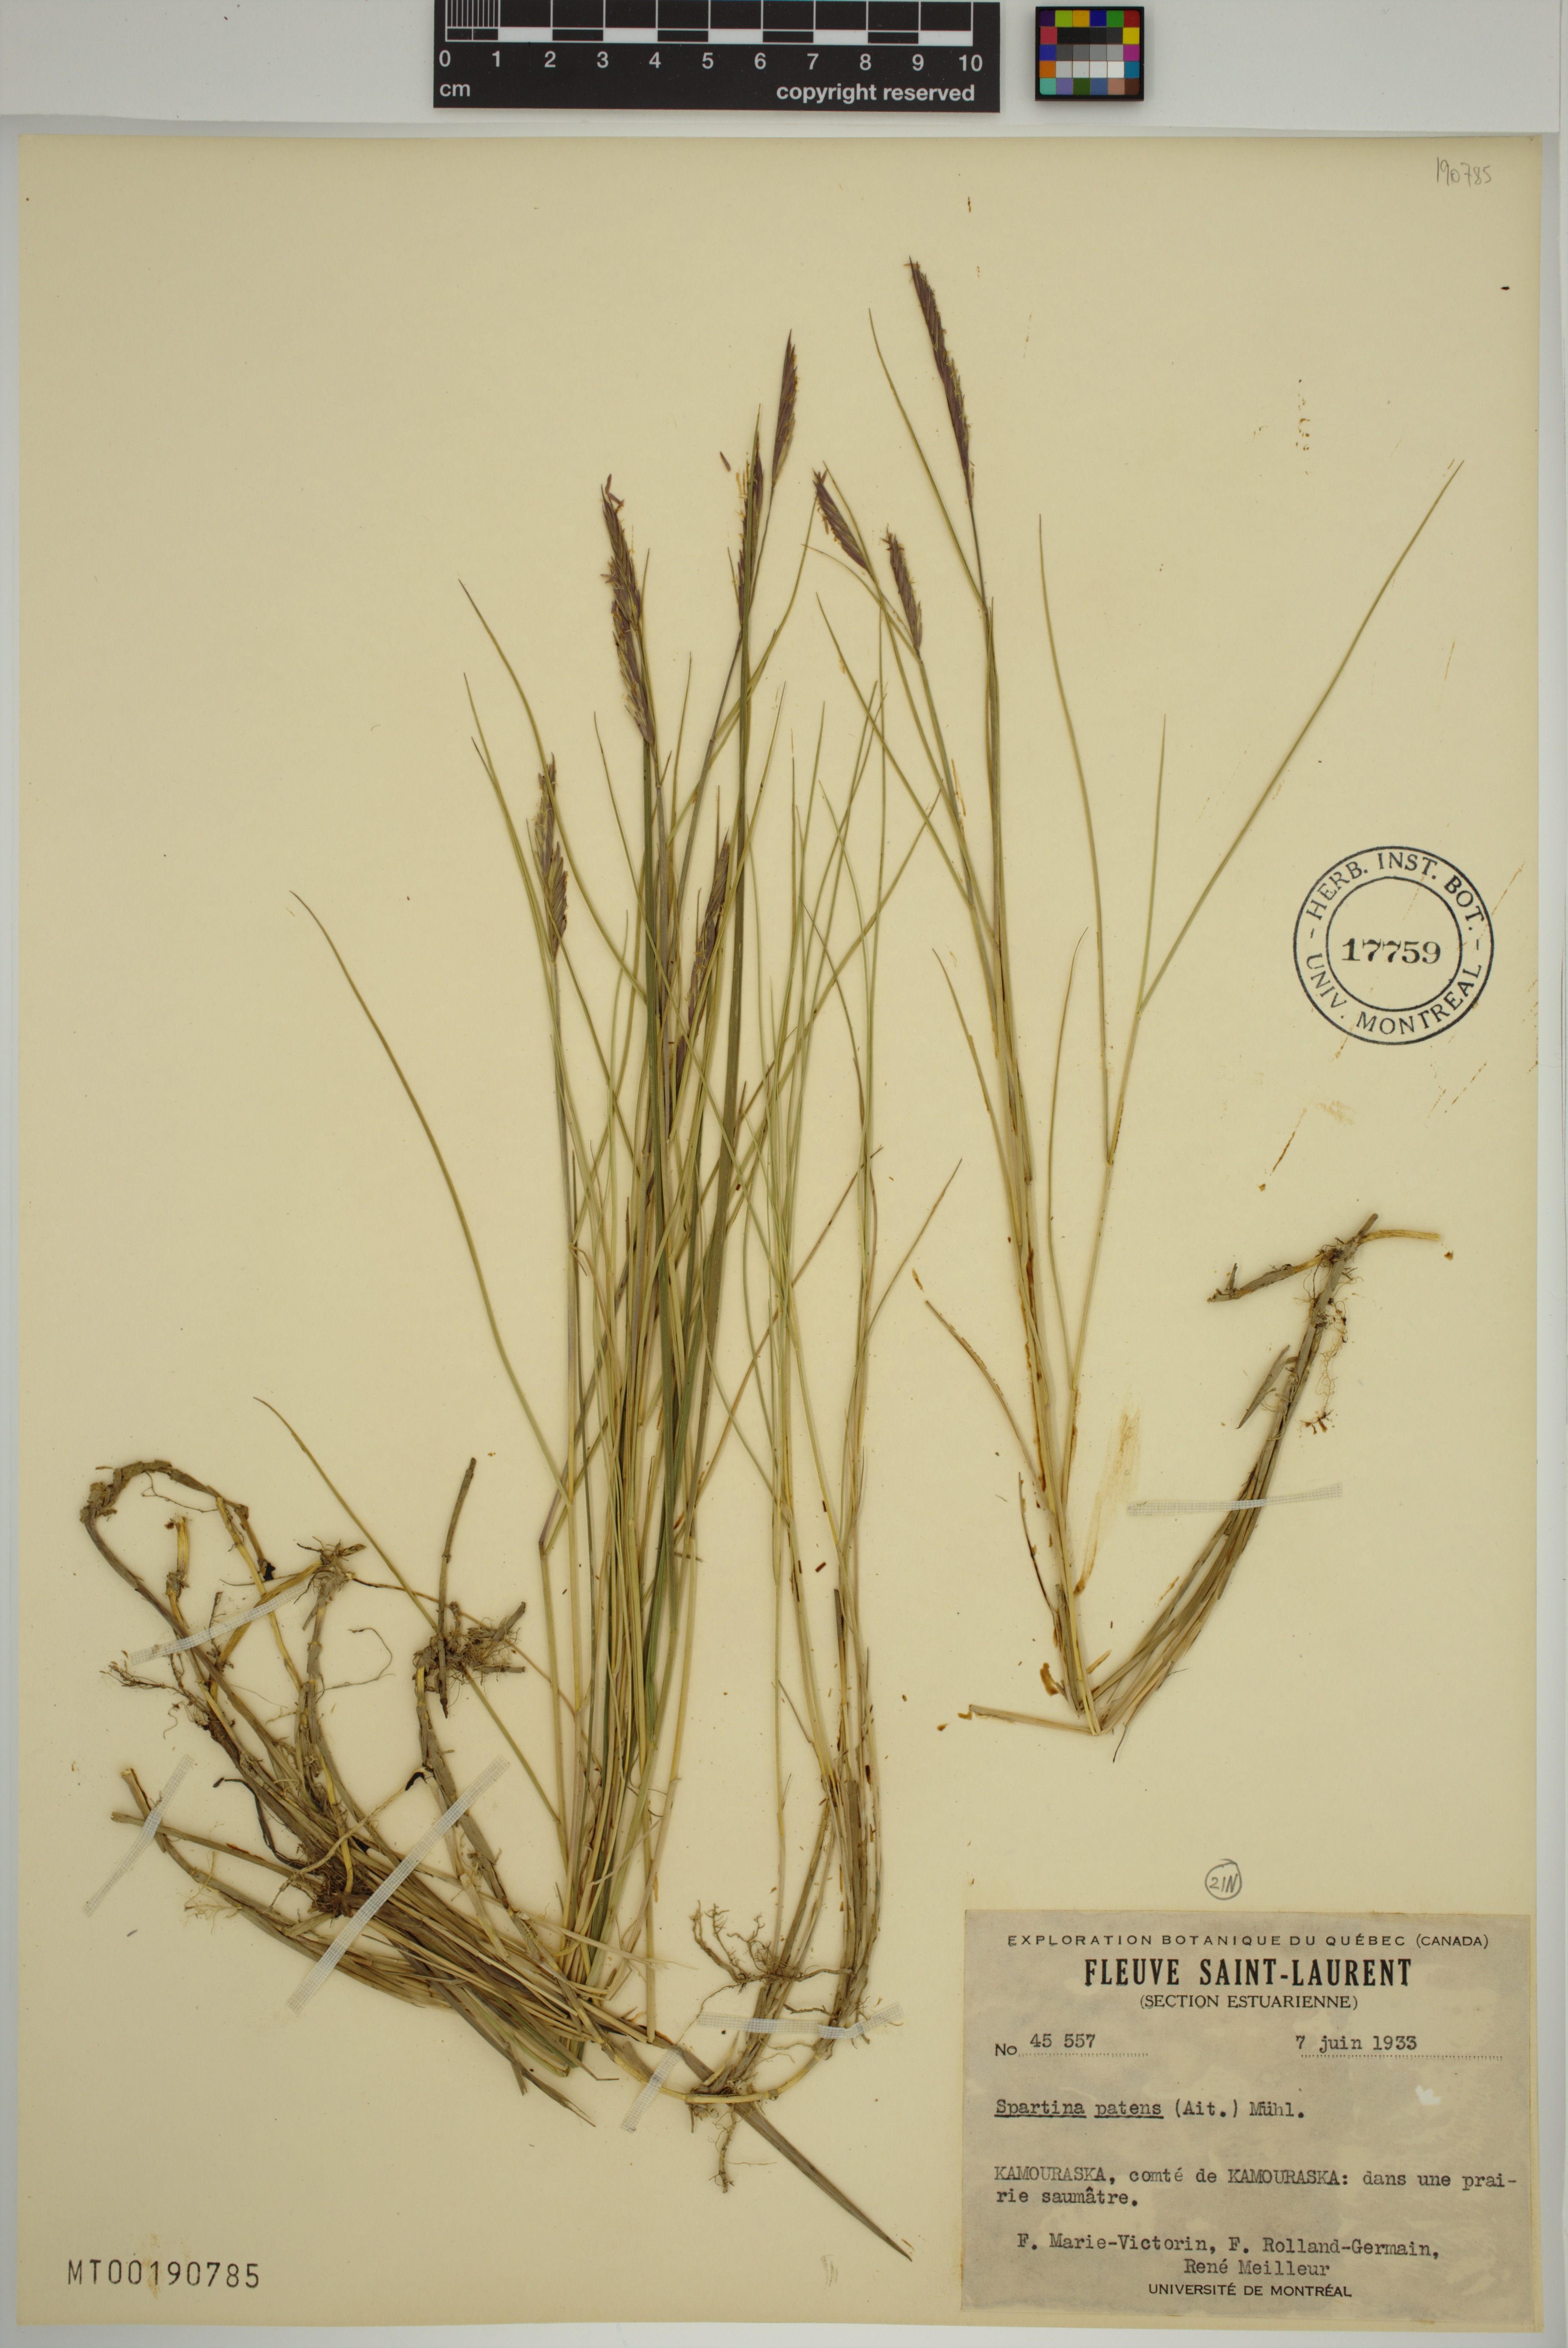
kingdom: Plantae
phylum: Tracheophyta
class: Liliopsida
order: Poales
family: Poaceae
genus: Sporobolus
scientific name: Sporobolus pumilus
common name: Highwater grass
